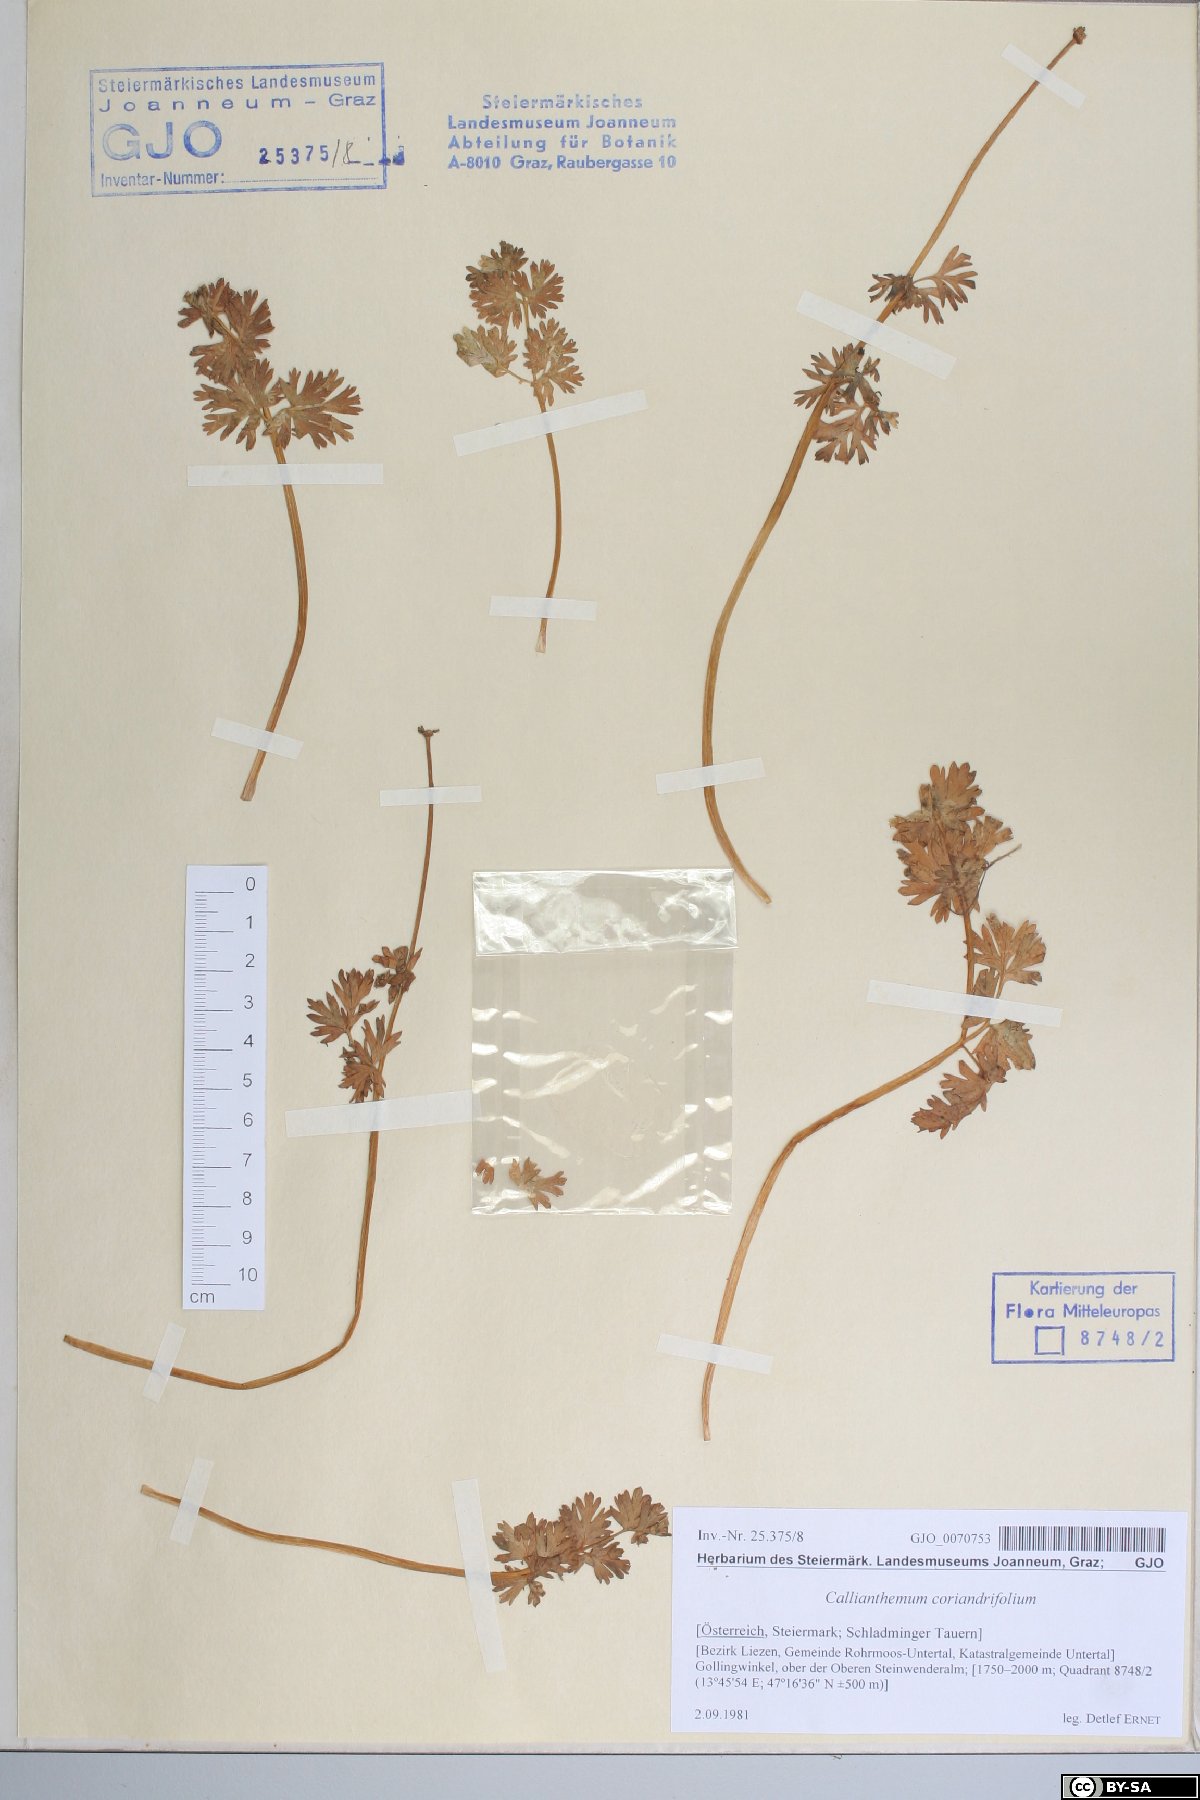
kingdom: Plantae
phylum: Tracheophyta
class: Magnoliopsida
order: Ranunculales
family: Ranunculaceae
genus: Callianthemum
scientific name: Callianthemum coriandrifolium
